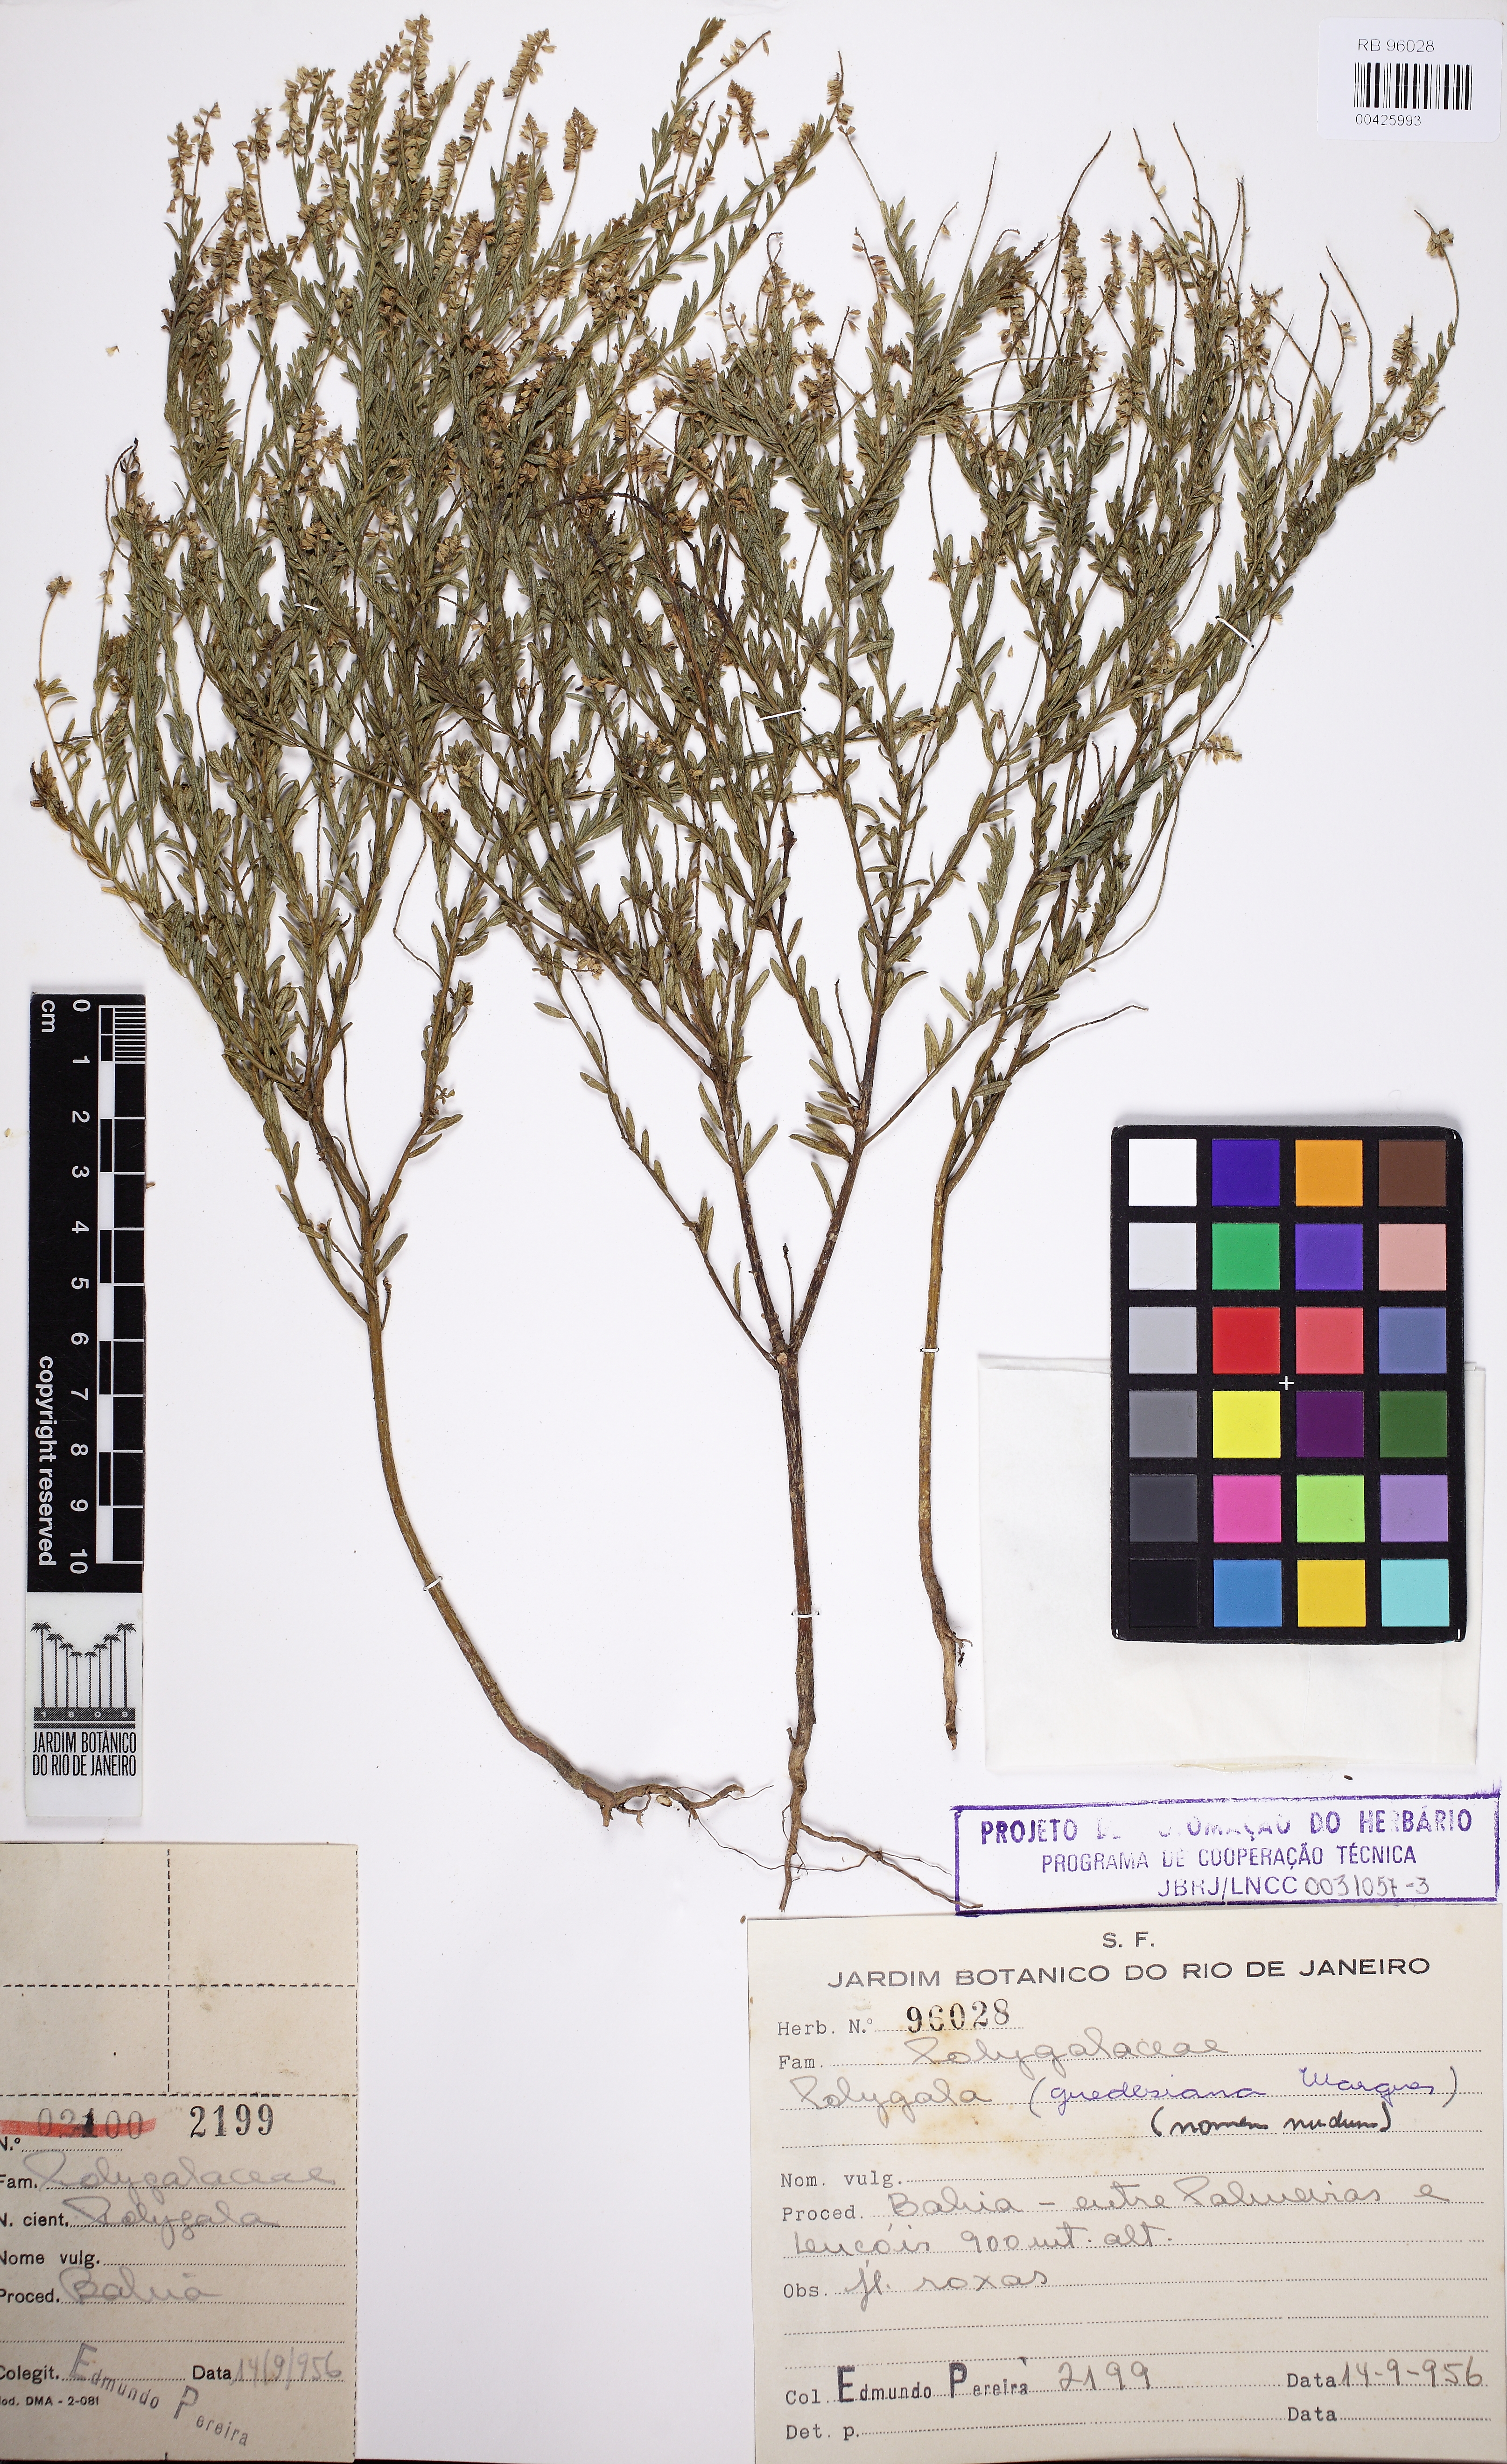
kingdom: Plantae
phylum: Tracheophyta
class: Magnoliopsida
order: Fabales
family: Polygalaceae
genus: Polygala
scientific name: Polygala sincorensis
